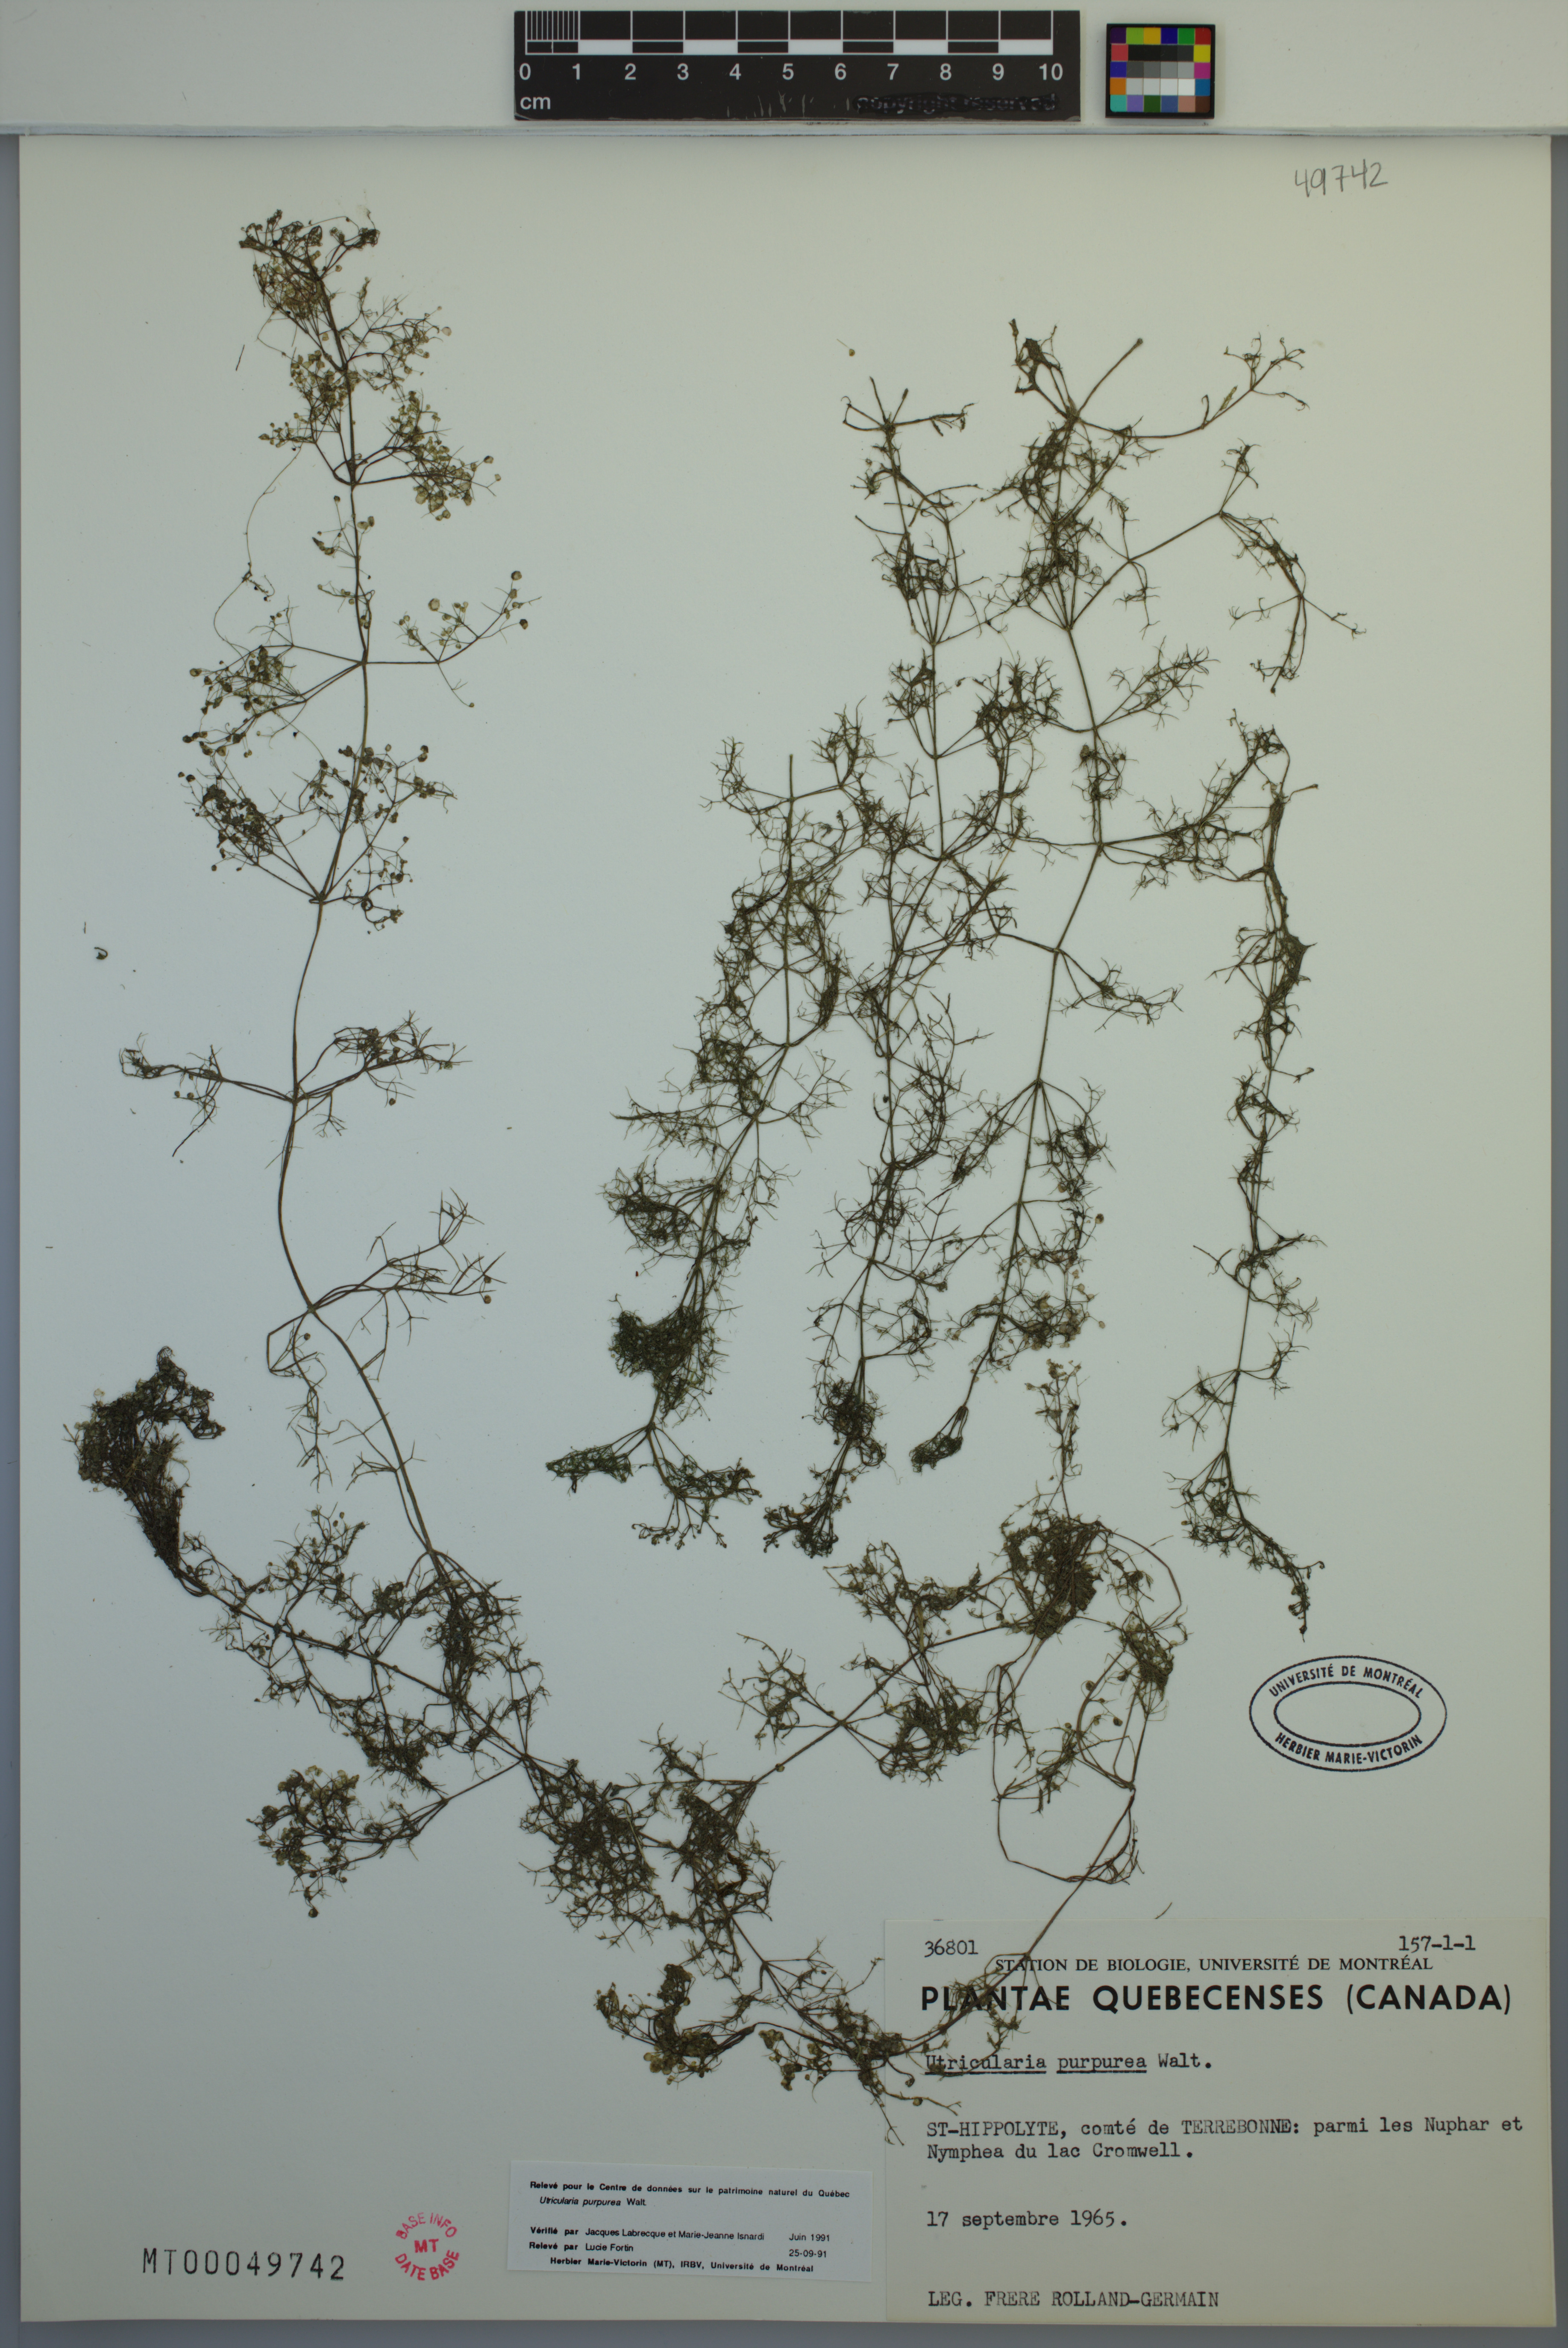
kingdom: Plantae
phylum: Tracheophyta
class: Magnoliopsida
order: Lamiales
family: Lentibulariaceae
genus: Utricularia
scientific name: Utricularia purpurea
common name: Eastern purple bladderwort
